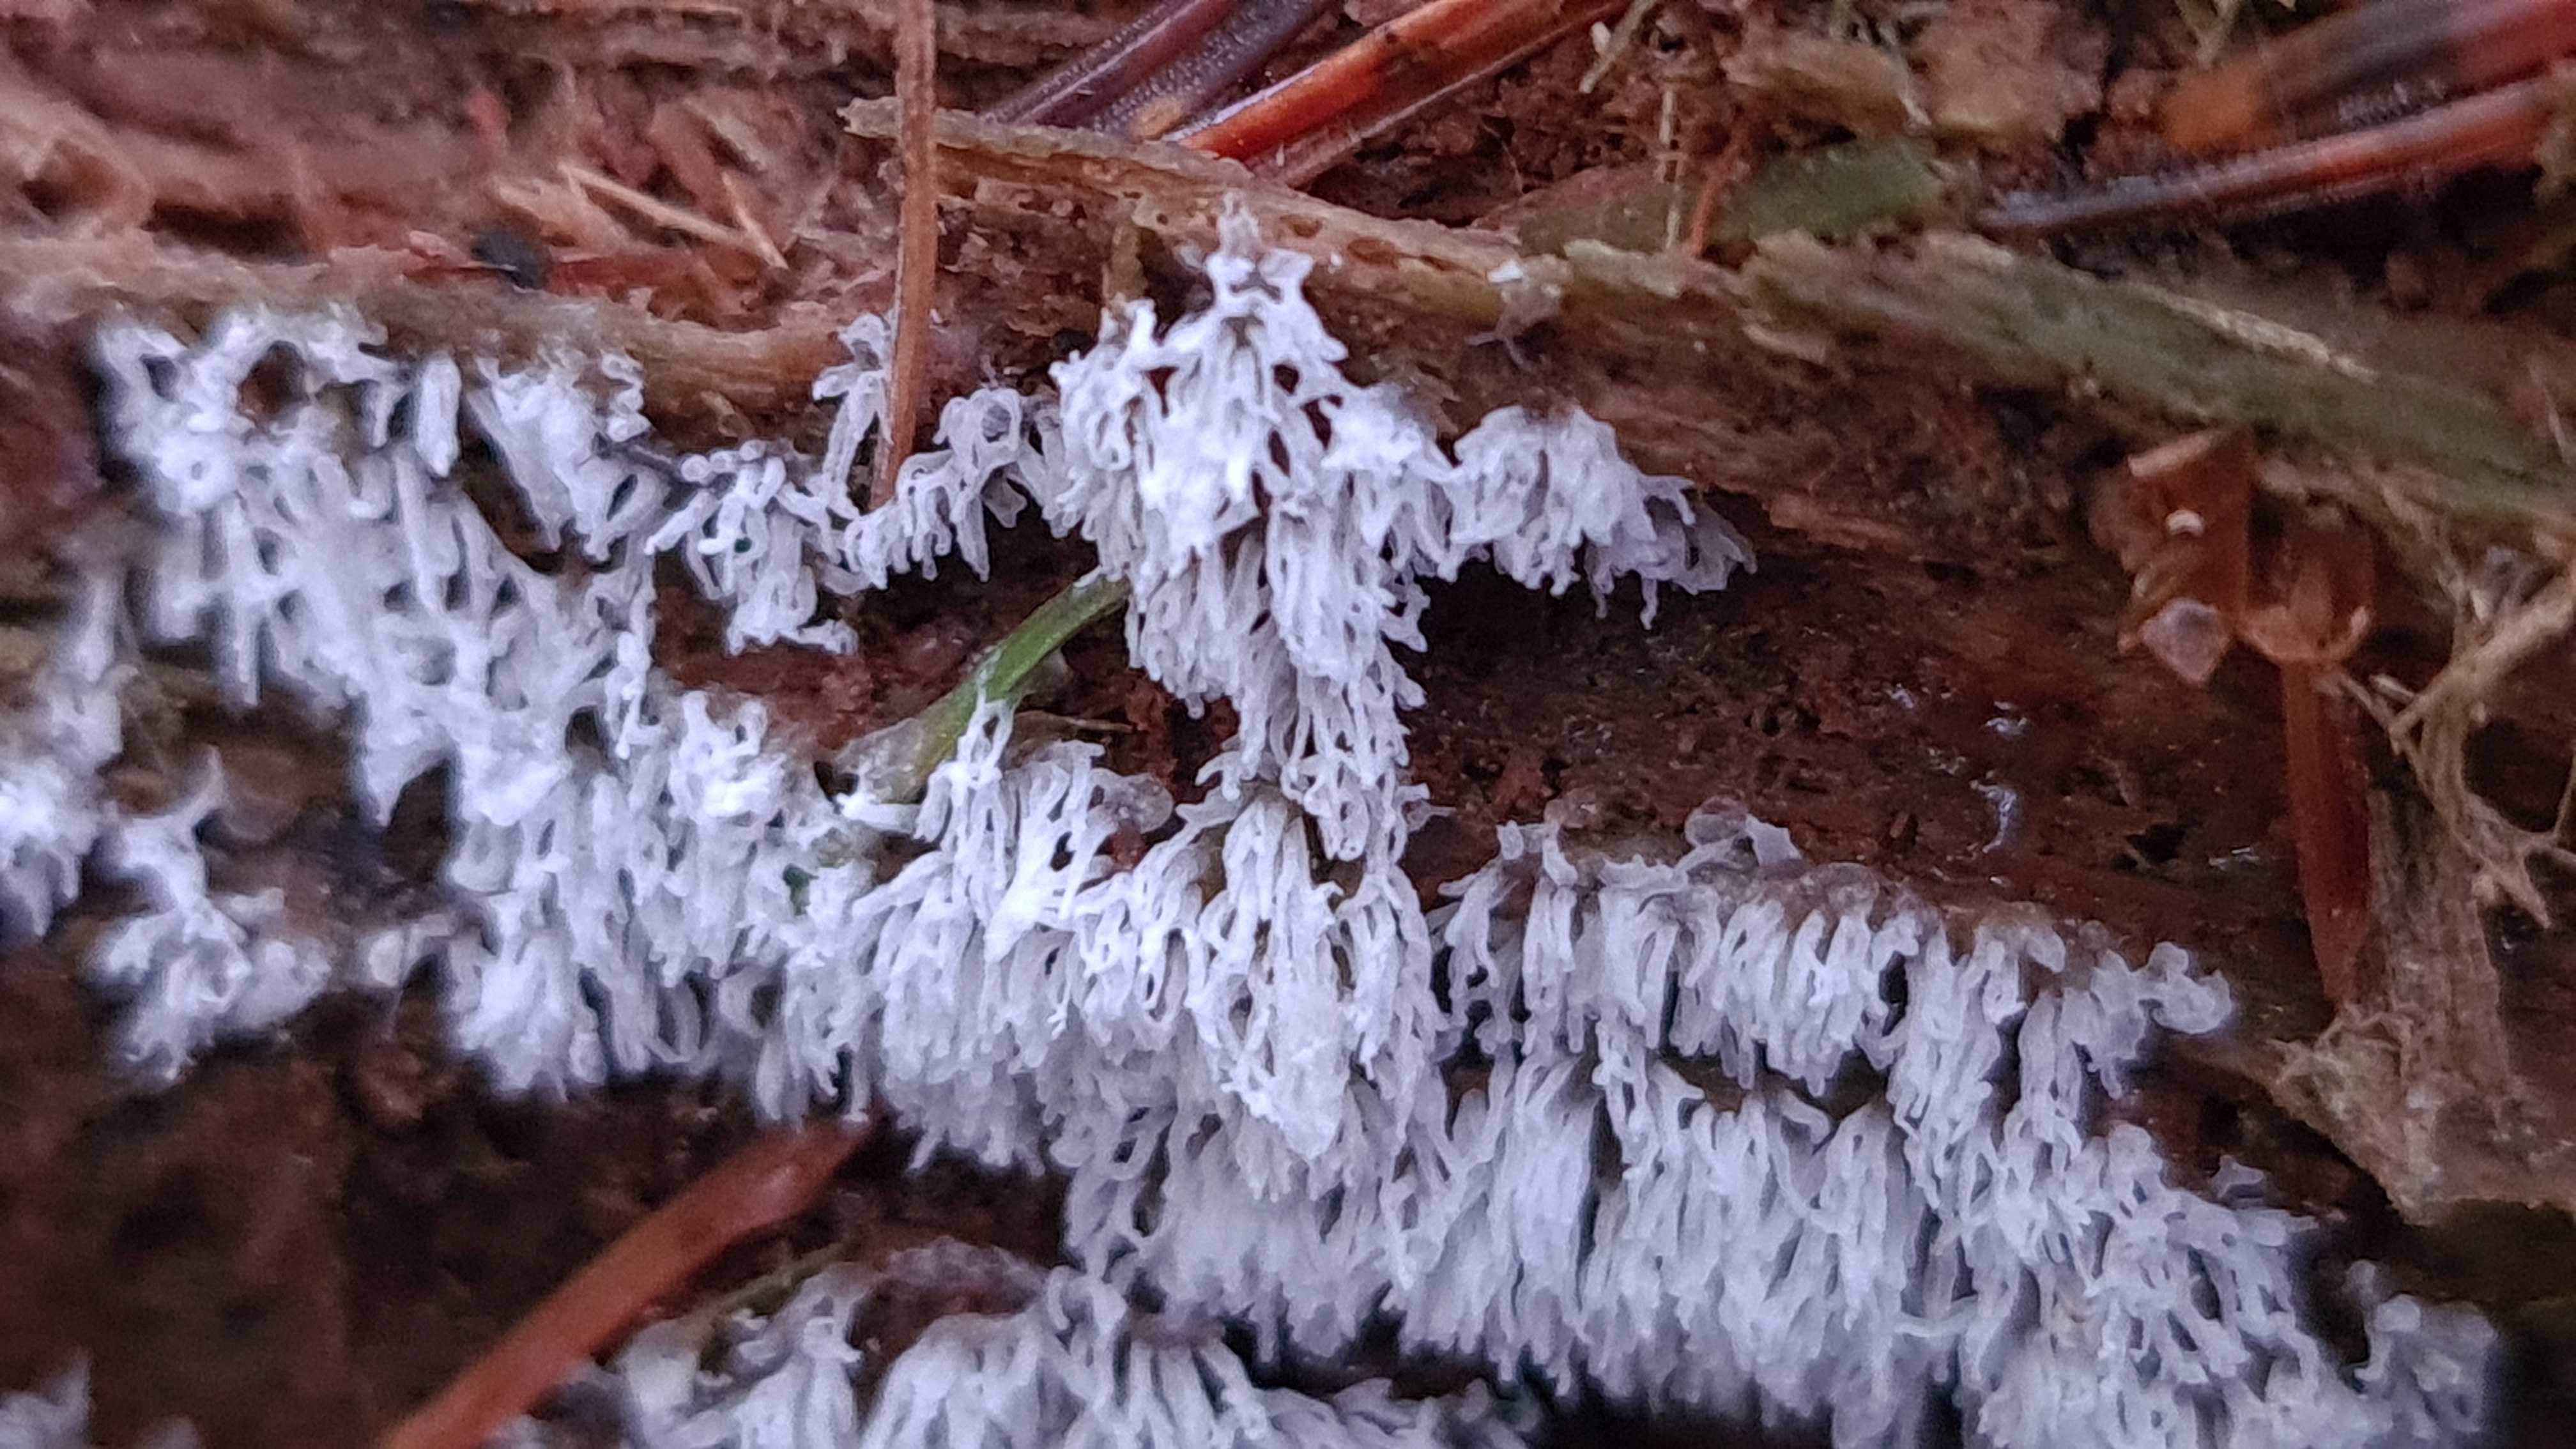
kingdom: Protozoa
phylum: Mycetozoa
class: Protosteliomycetes
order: Ceratiomyxales
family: Ceratiomyxaceae
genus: Ceratiomyxa
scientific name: Ceratiomyxa fruticulosa
